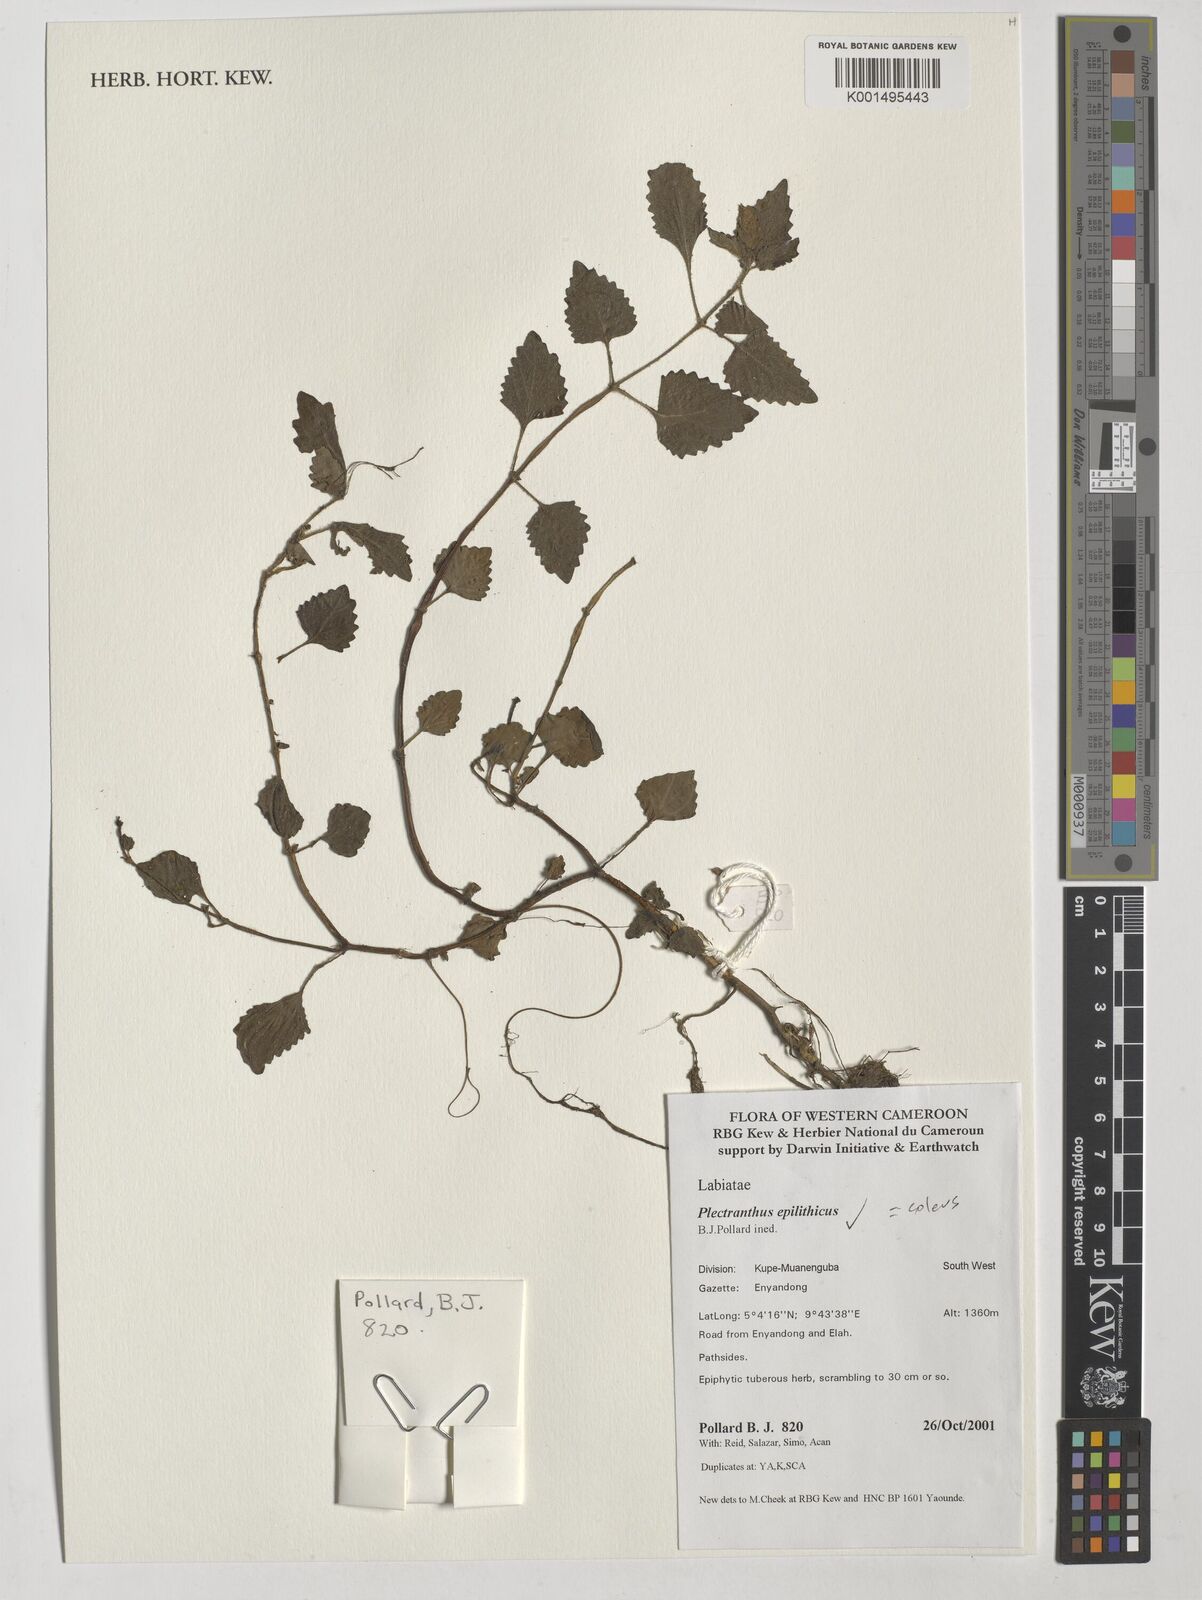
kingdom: Plantae
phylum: Tracheophyta
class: Magnoliopsida
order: Lamiales
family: Lamiaceae
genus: Coleus
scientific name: Coleus repens
